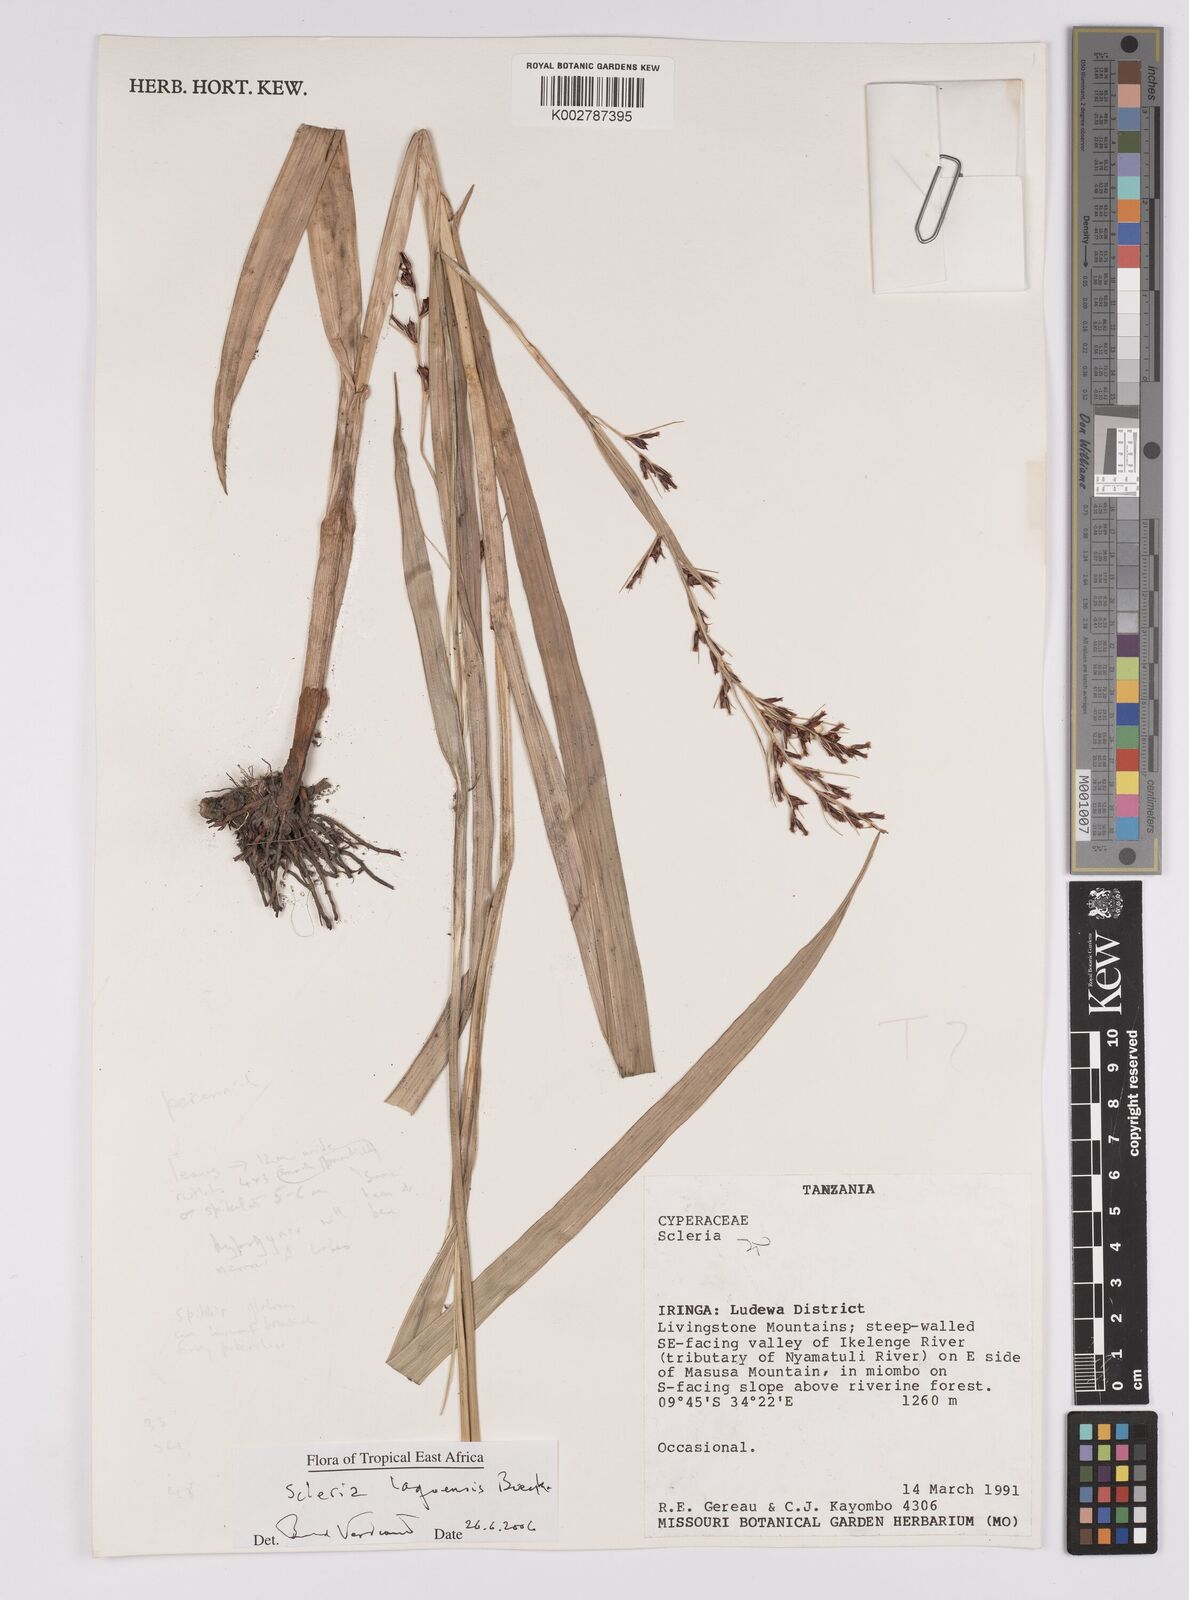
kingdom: Plantae
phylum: Tracheophyta
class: Liliopsida
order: Poales
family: Cyperaceae
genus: Scleria
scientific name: Scleria lagoensis
